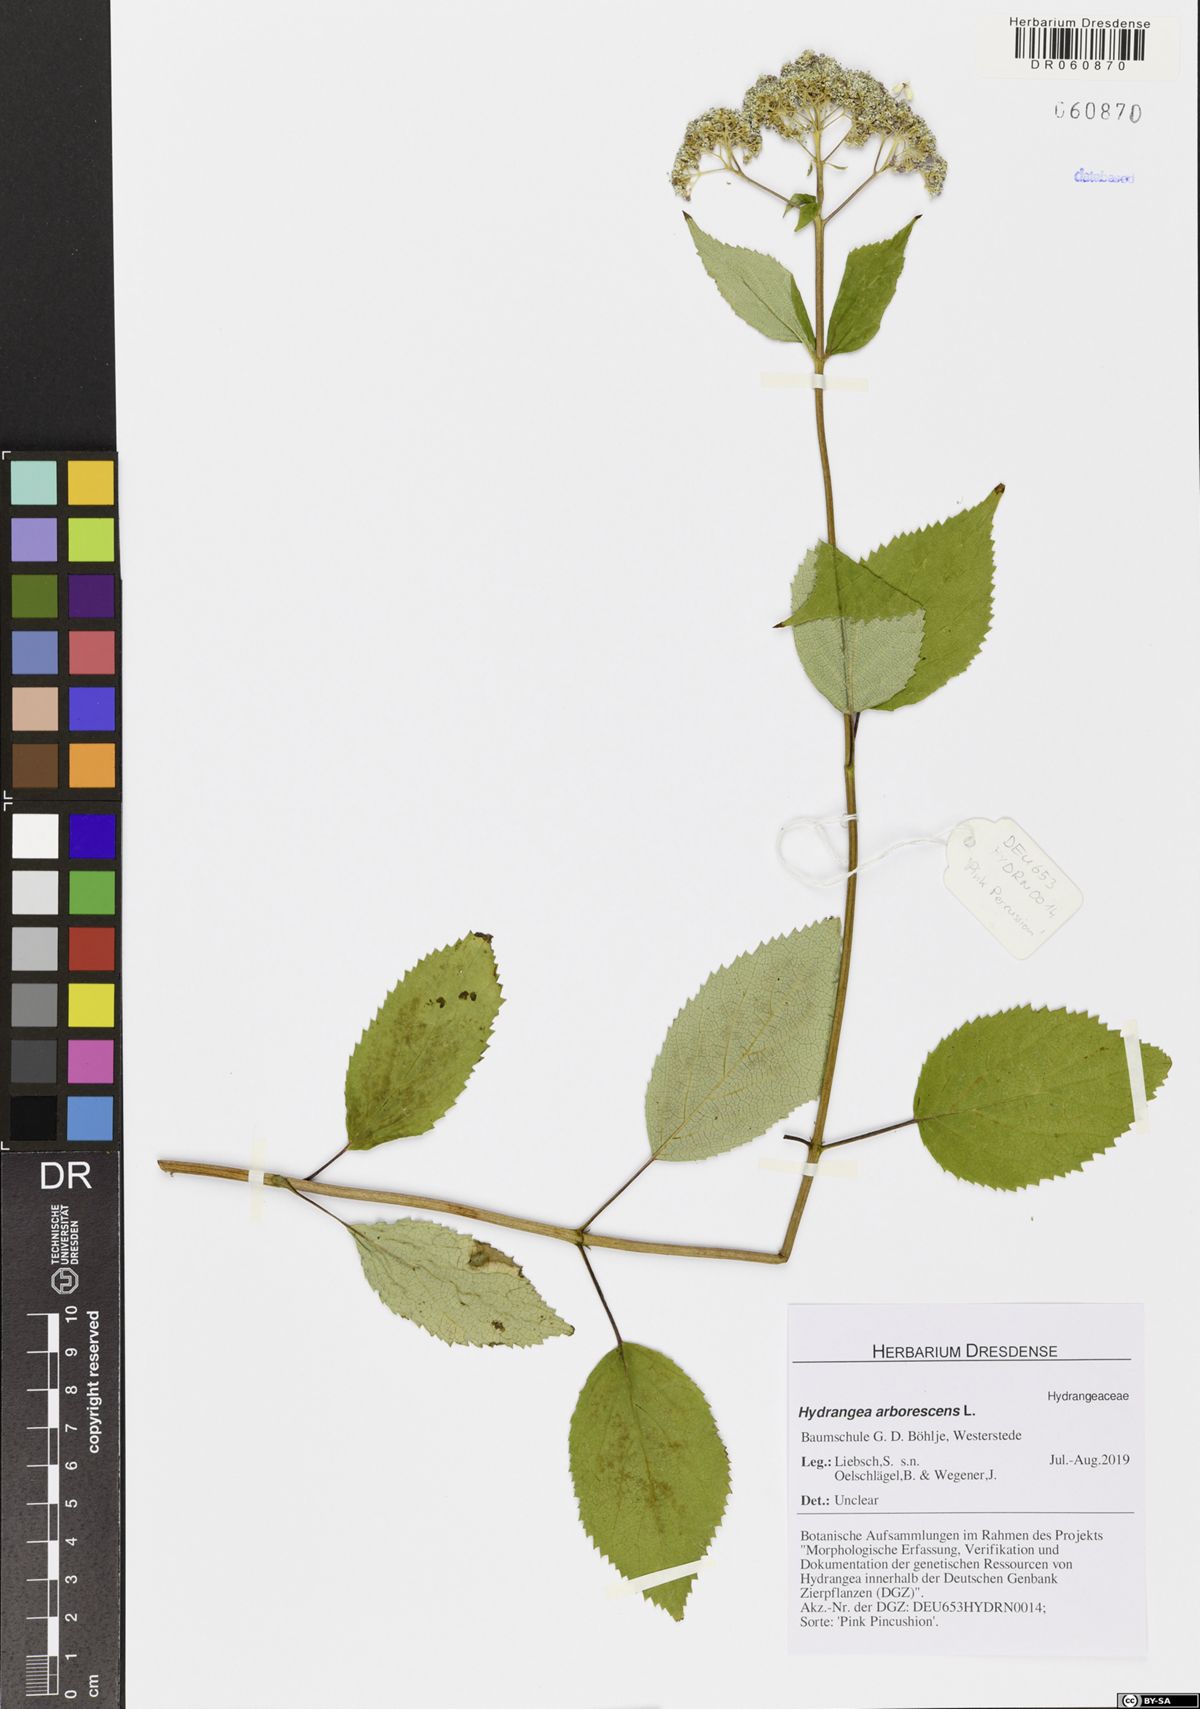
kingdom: Plantae
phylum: Tracheophyta
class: Magnoliopsida
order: Cornales
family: Hydrangeaceae
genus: Hydrangea
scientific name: Hydrangea arborescens
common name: Sevenbark
